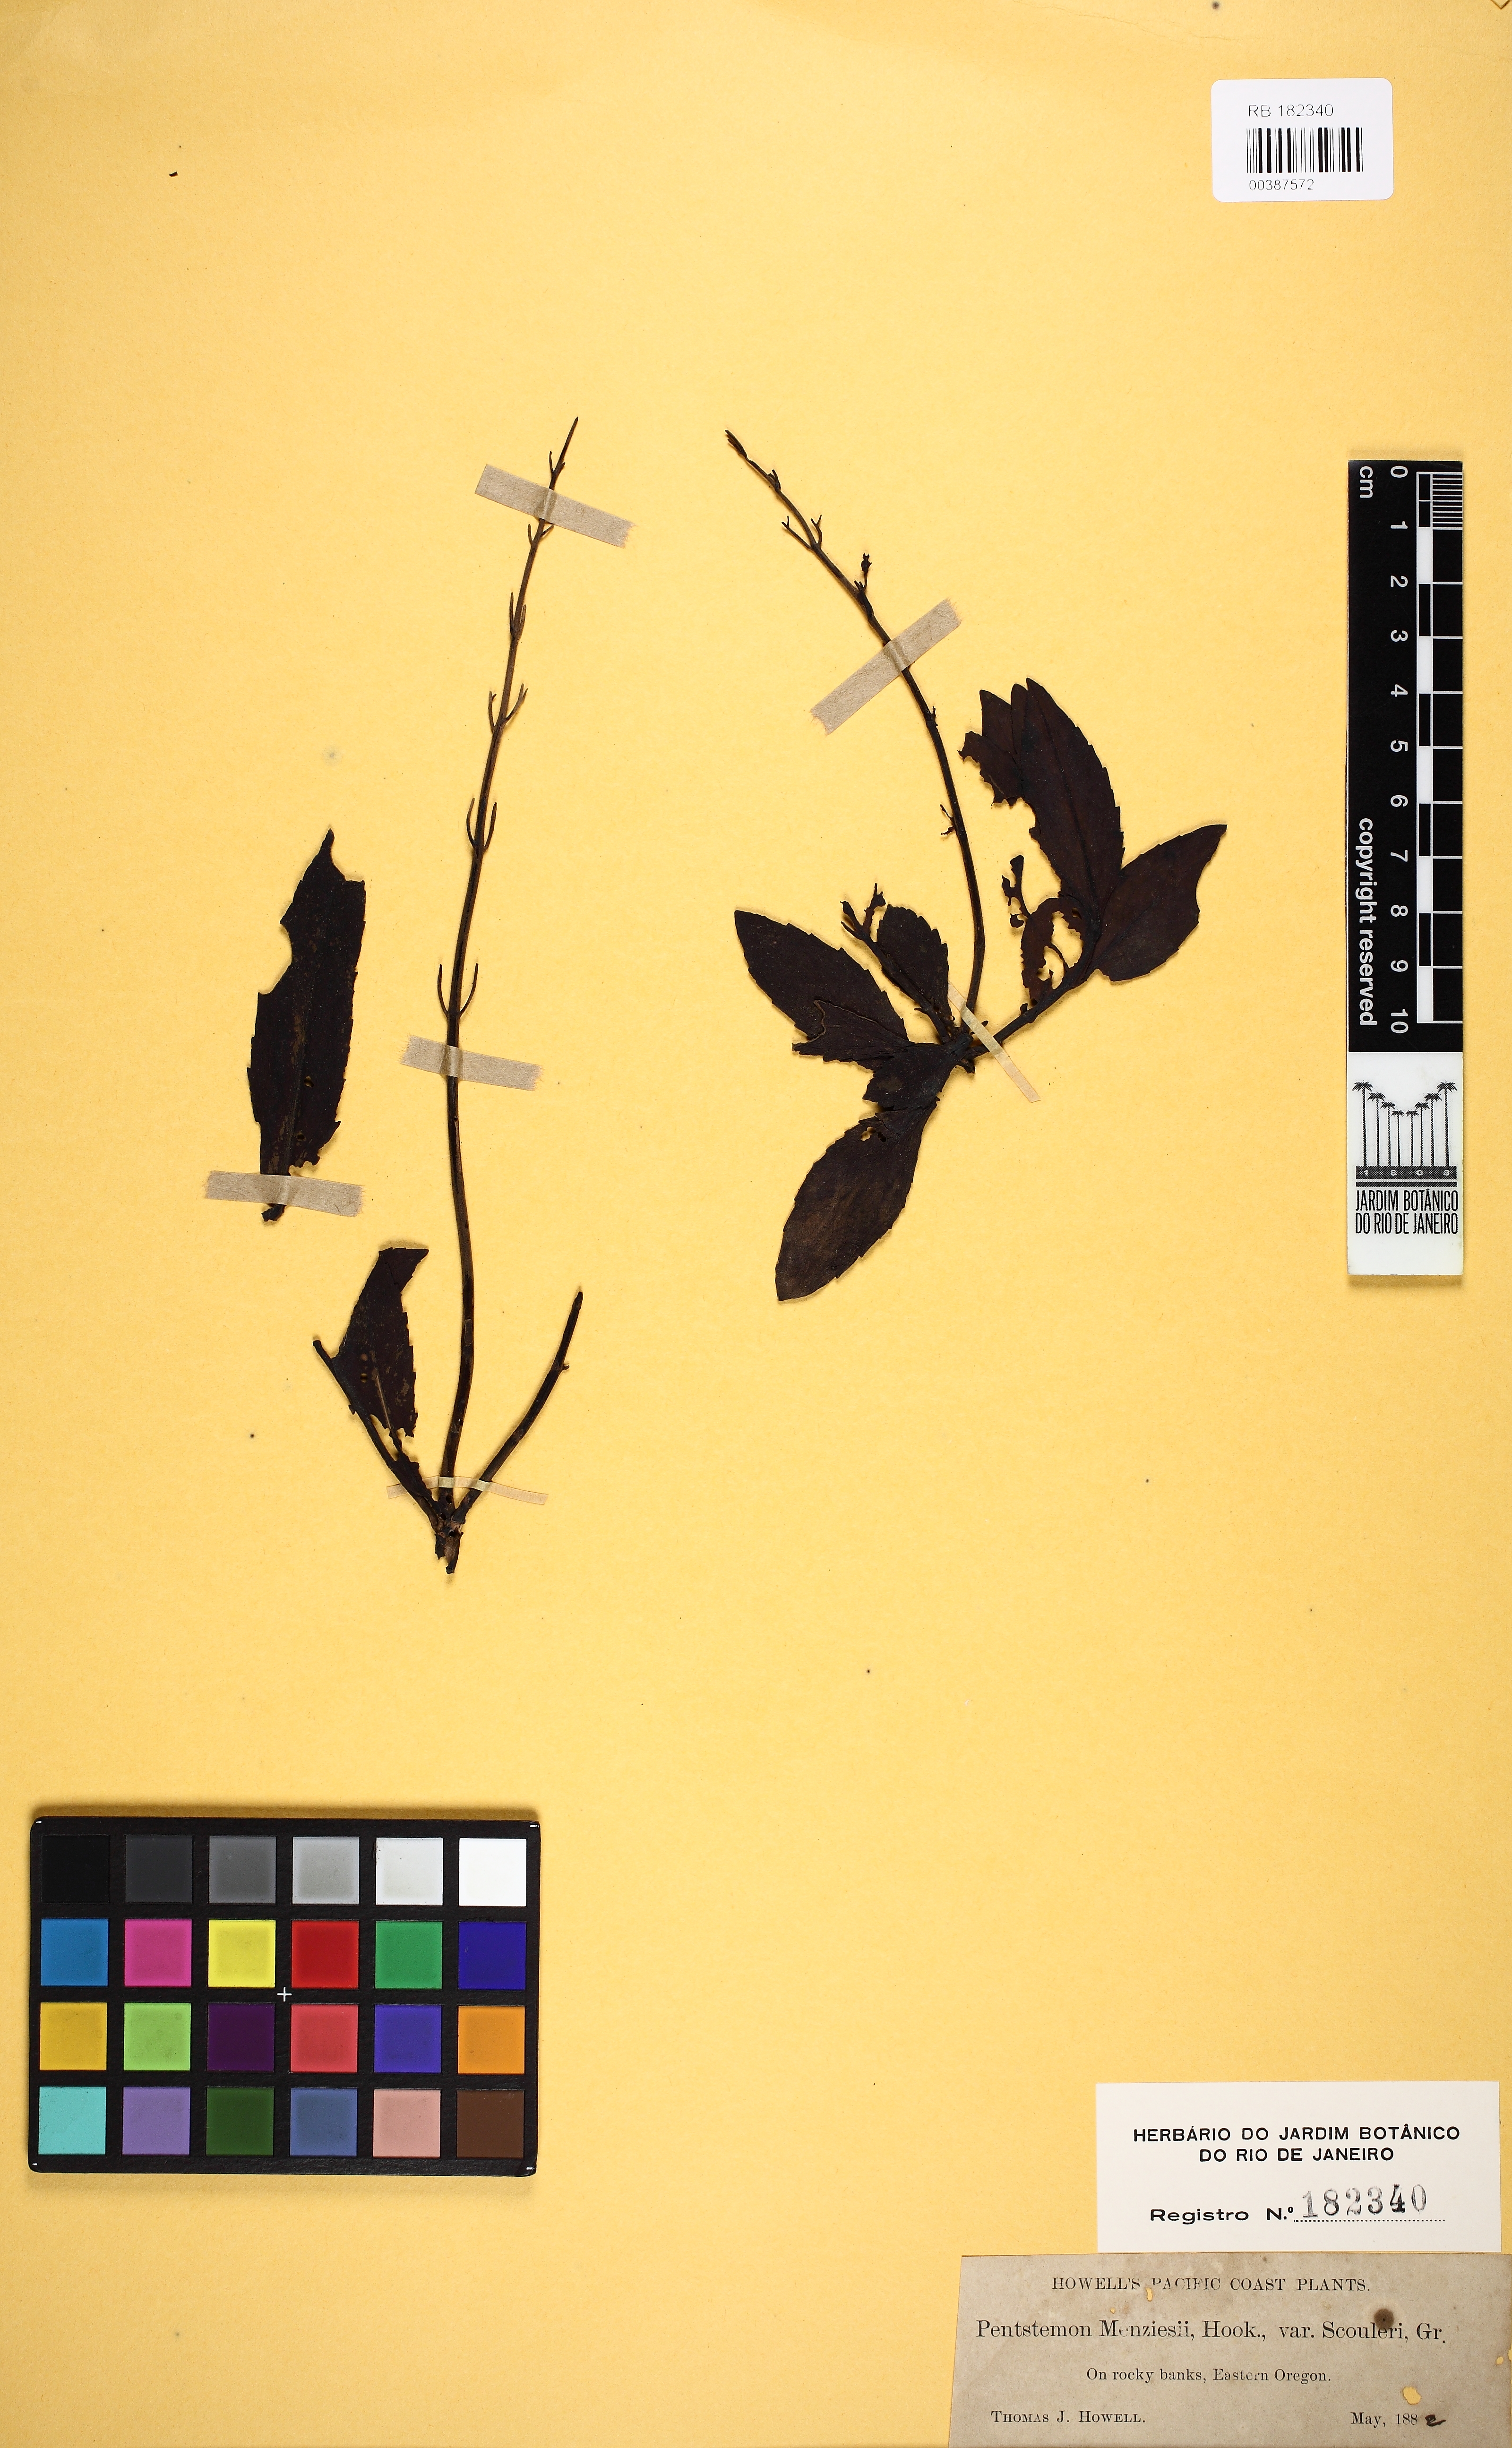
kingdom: Plantae
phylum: Tracheophyta
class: Magnoliopsida
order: Lamiales
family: Plantaginaceae
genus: Penstemon
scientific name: Penstemon fruticosus
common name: Bush penstemon
